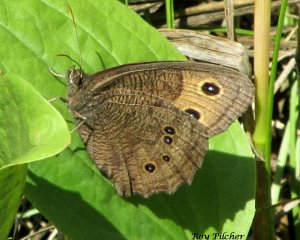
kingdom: Animalia
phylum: Arthropoda
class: Insecta
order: Lepidoptera
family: Nymphalidae
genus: Cercyonis
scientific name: Cercyonis pegala
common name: Common Wood-Nymph
